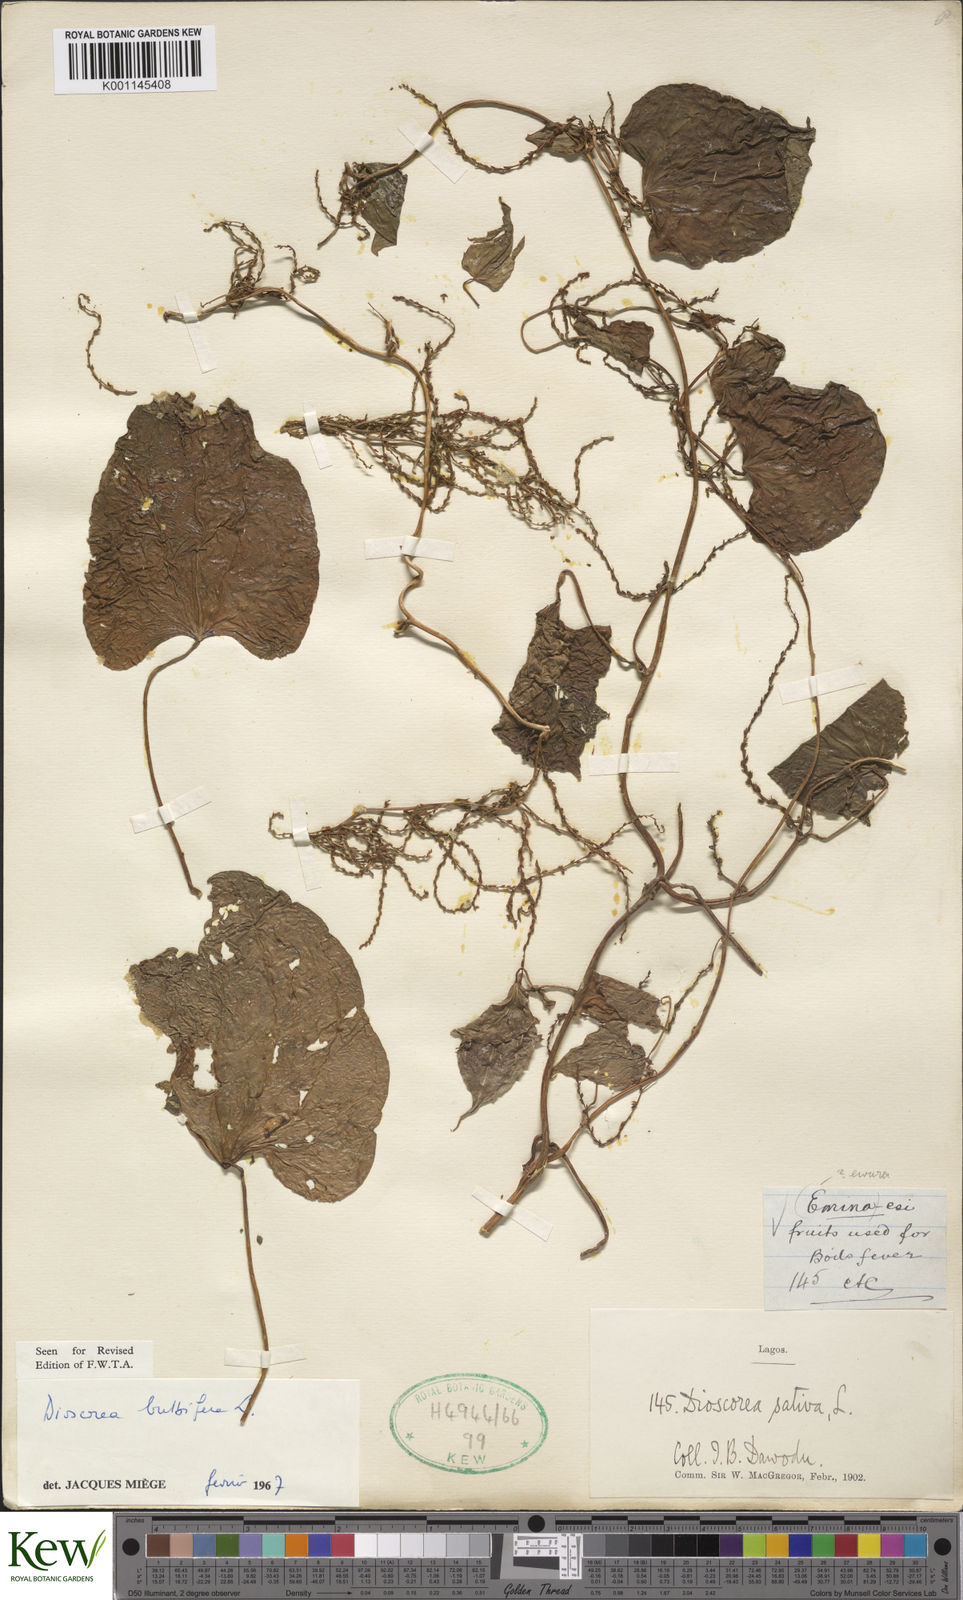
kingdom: Plantae
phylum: Tracheophyta
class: Liliopsida
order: Dioscoreales
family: Dioscoreaceae
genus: Dioscorea
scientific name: Dioscorea bulbifera
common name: Air yam
